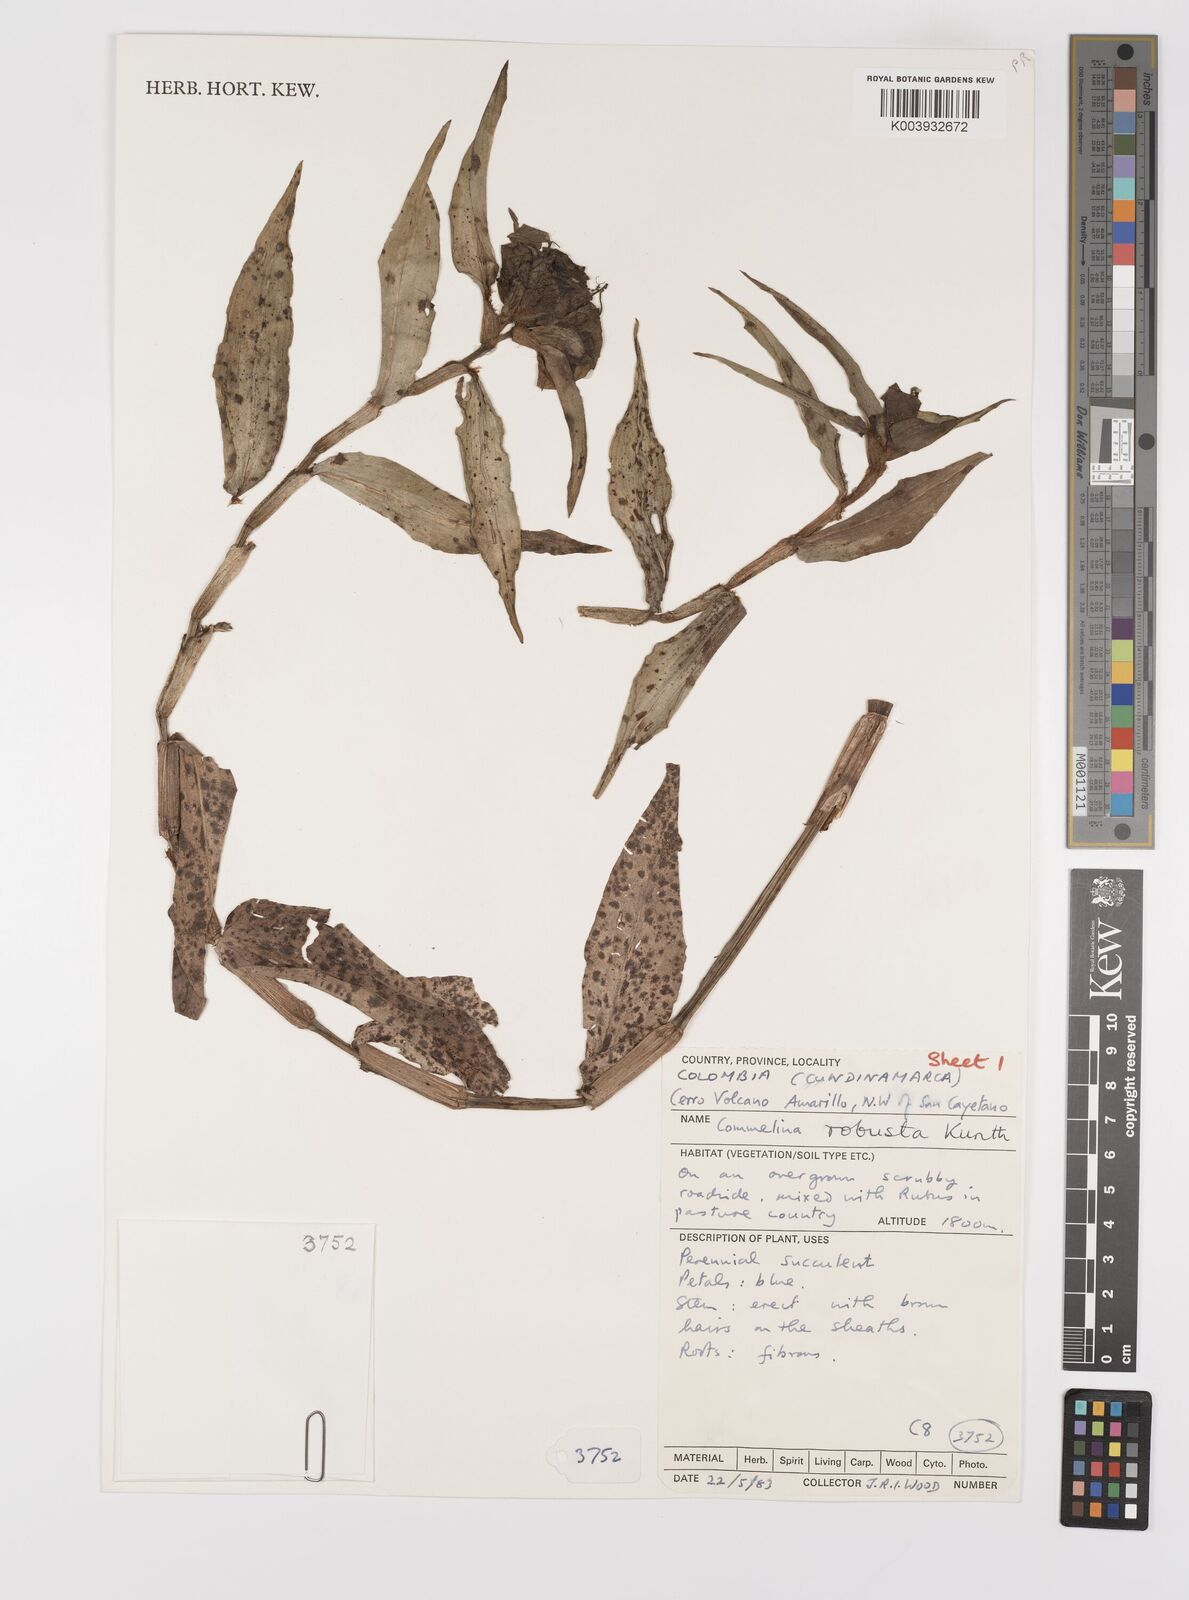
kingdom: Plantae
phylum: Tracheophyta
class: Liliopsida
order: Commelinales
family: Commelinaceae
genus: Commelina
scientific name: Commelina obliqua
